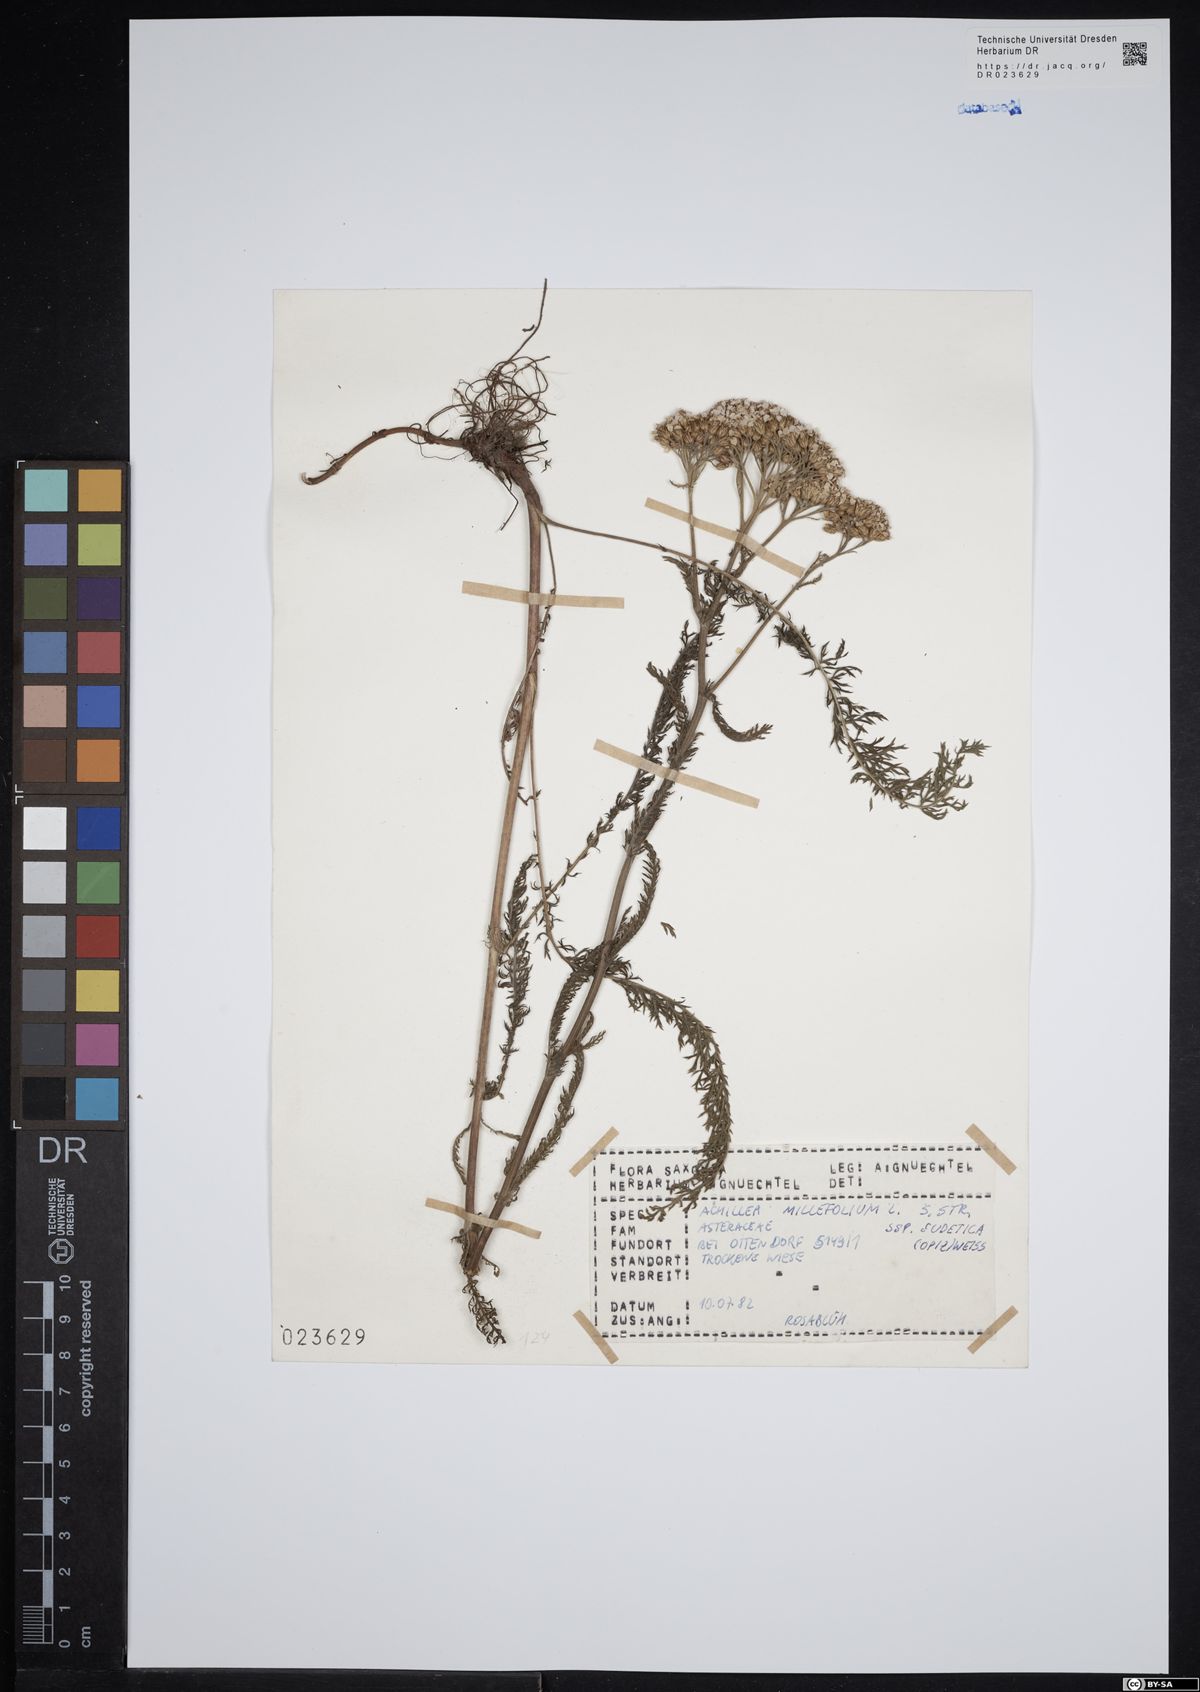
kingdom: Plantae
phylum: Tracheophyta
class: Magnoliopsida
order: Asterales
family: Asteraceae
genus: Achillea
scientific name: Achillea millefolium
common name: Yarrow
